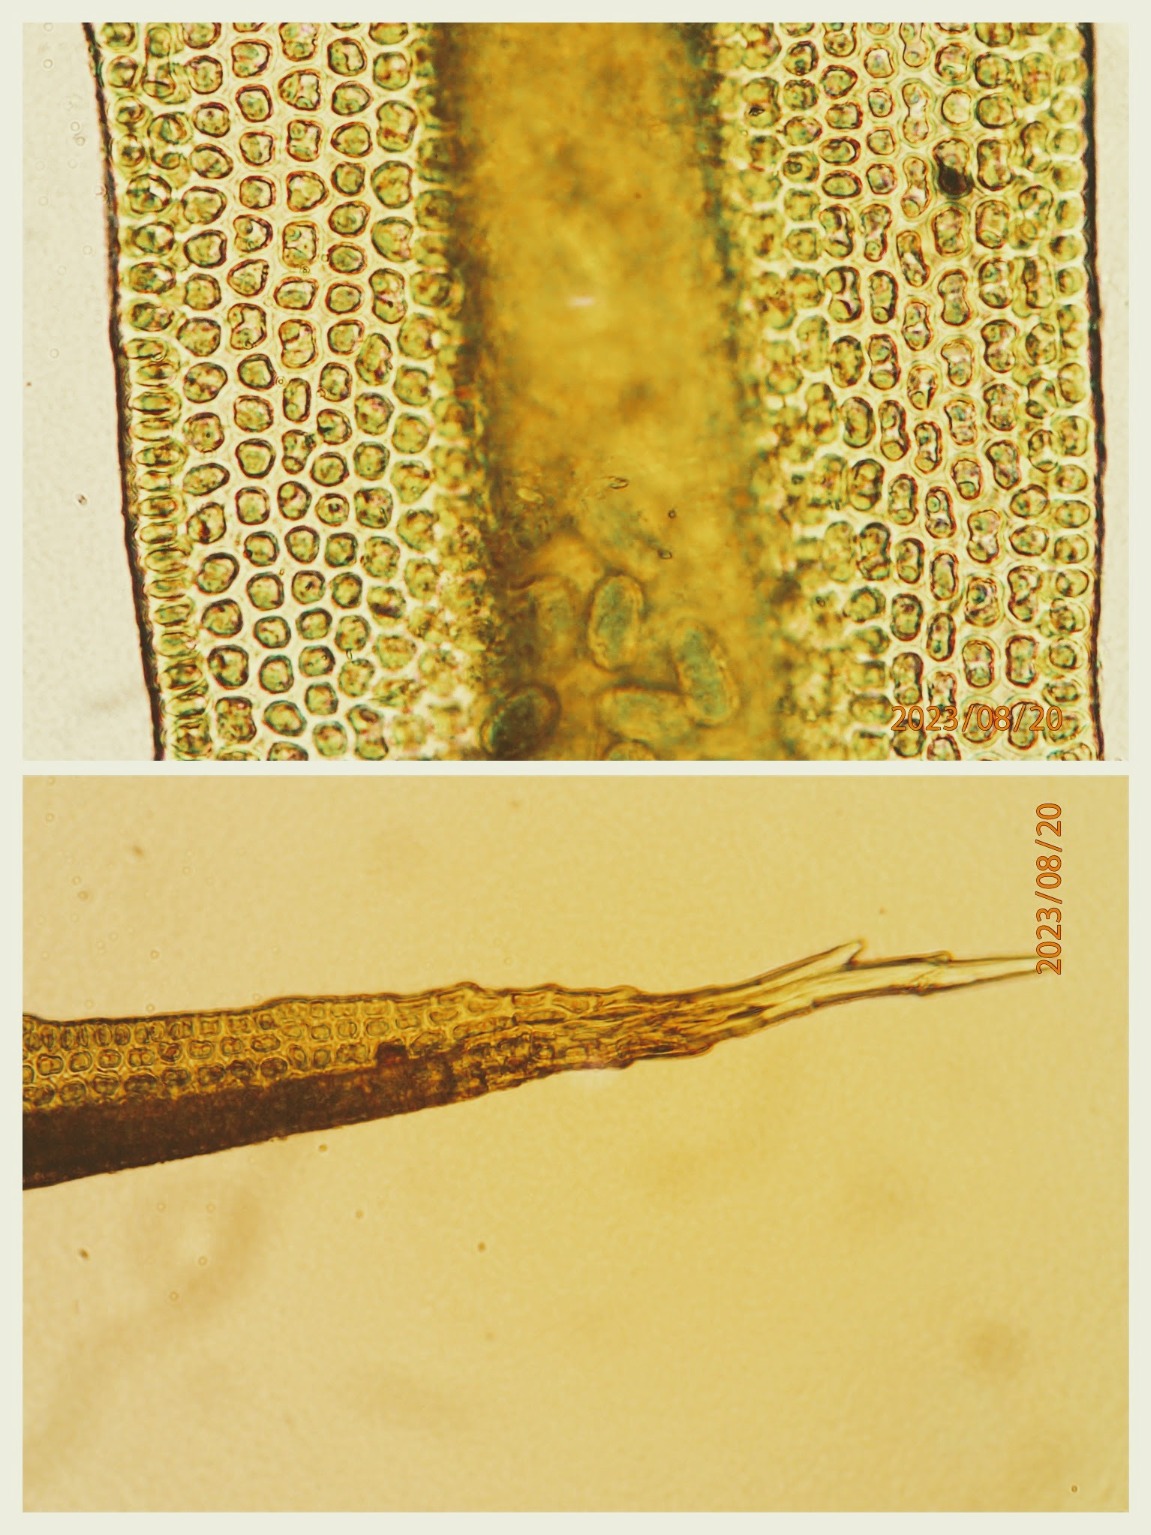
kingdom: Plantae
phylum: Bryophyta
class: Bryopsida
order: Grimmiales
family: Grimmiaceae
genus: Grimmia
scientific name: Grimmia hartmanii
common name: Hartmans gråmos
